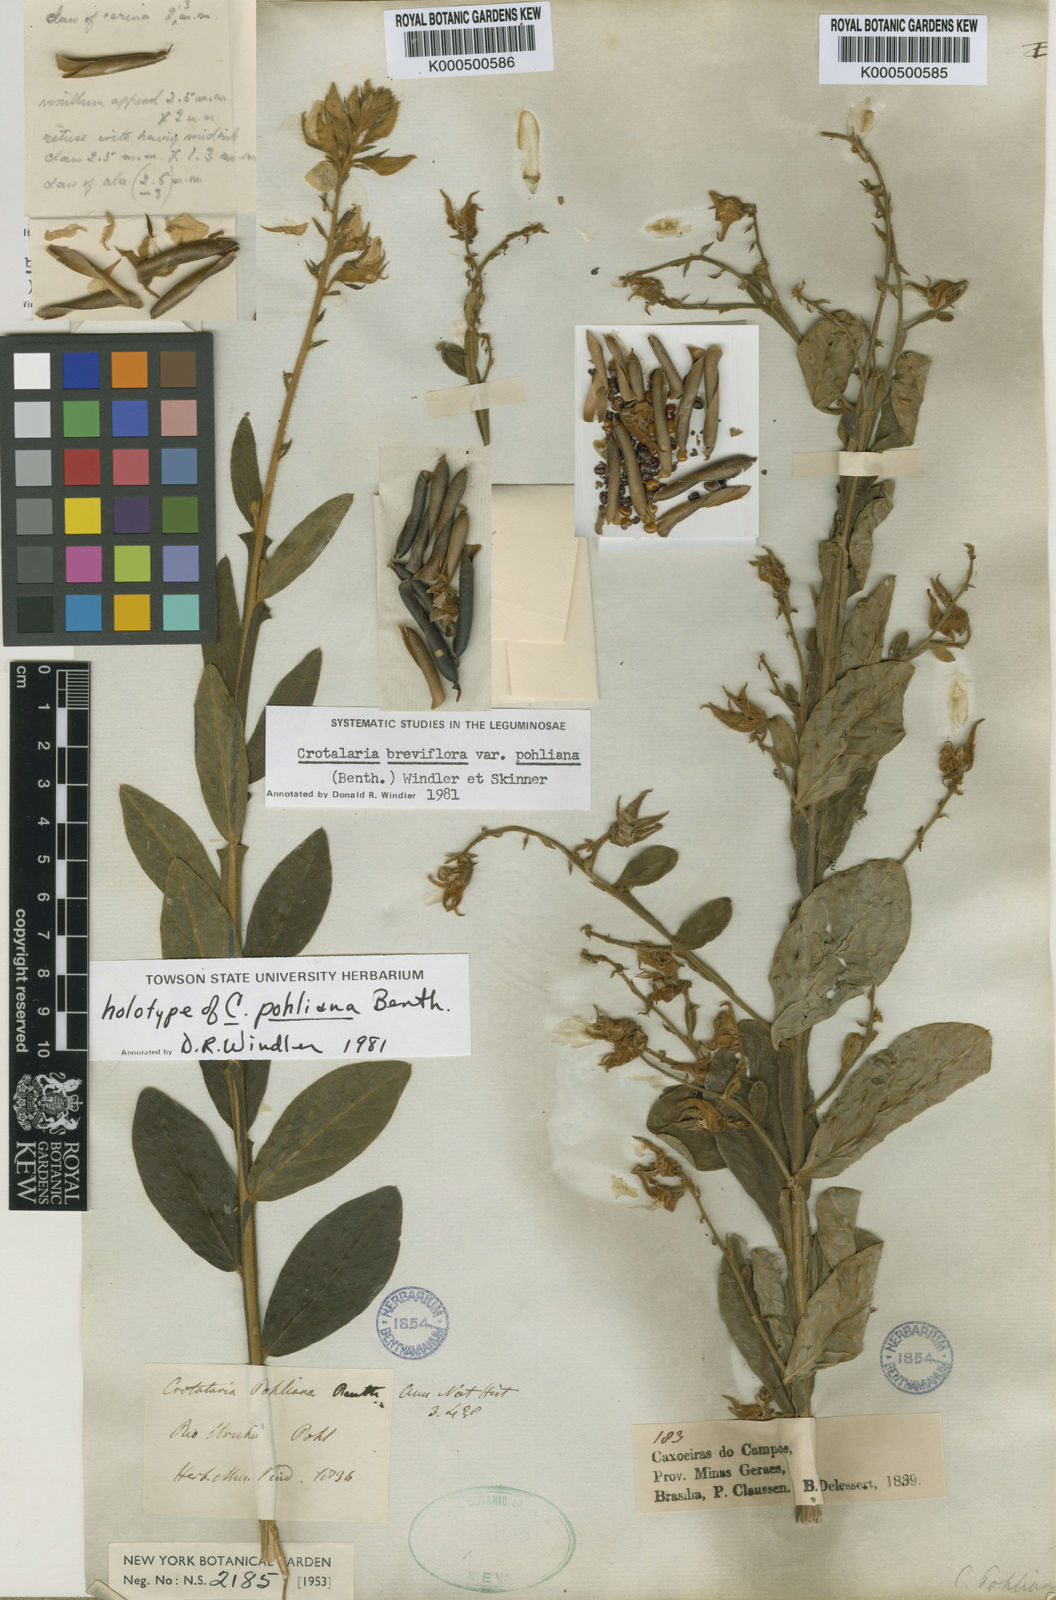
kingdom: Plantae
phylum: Tracheophyta
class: Magnoliopsida
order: Fabales
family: Fabaceae
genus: Crotalaria
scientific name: Crotalaria breviflora
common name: Short-flower crotalaria
